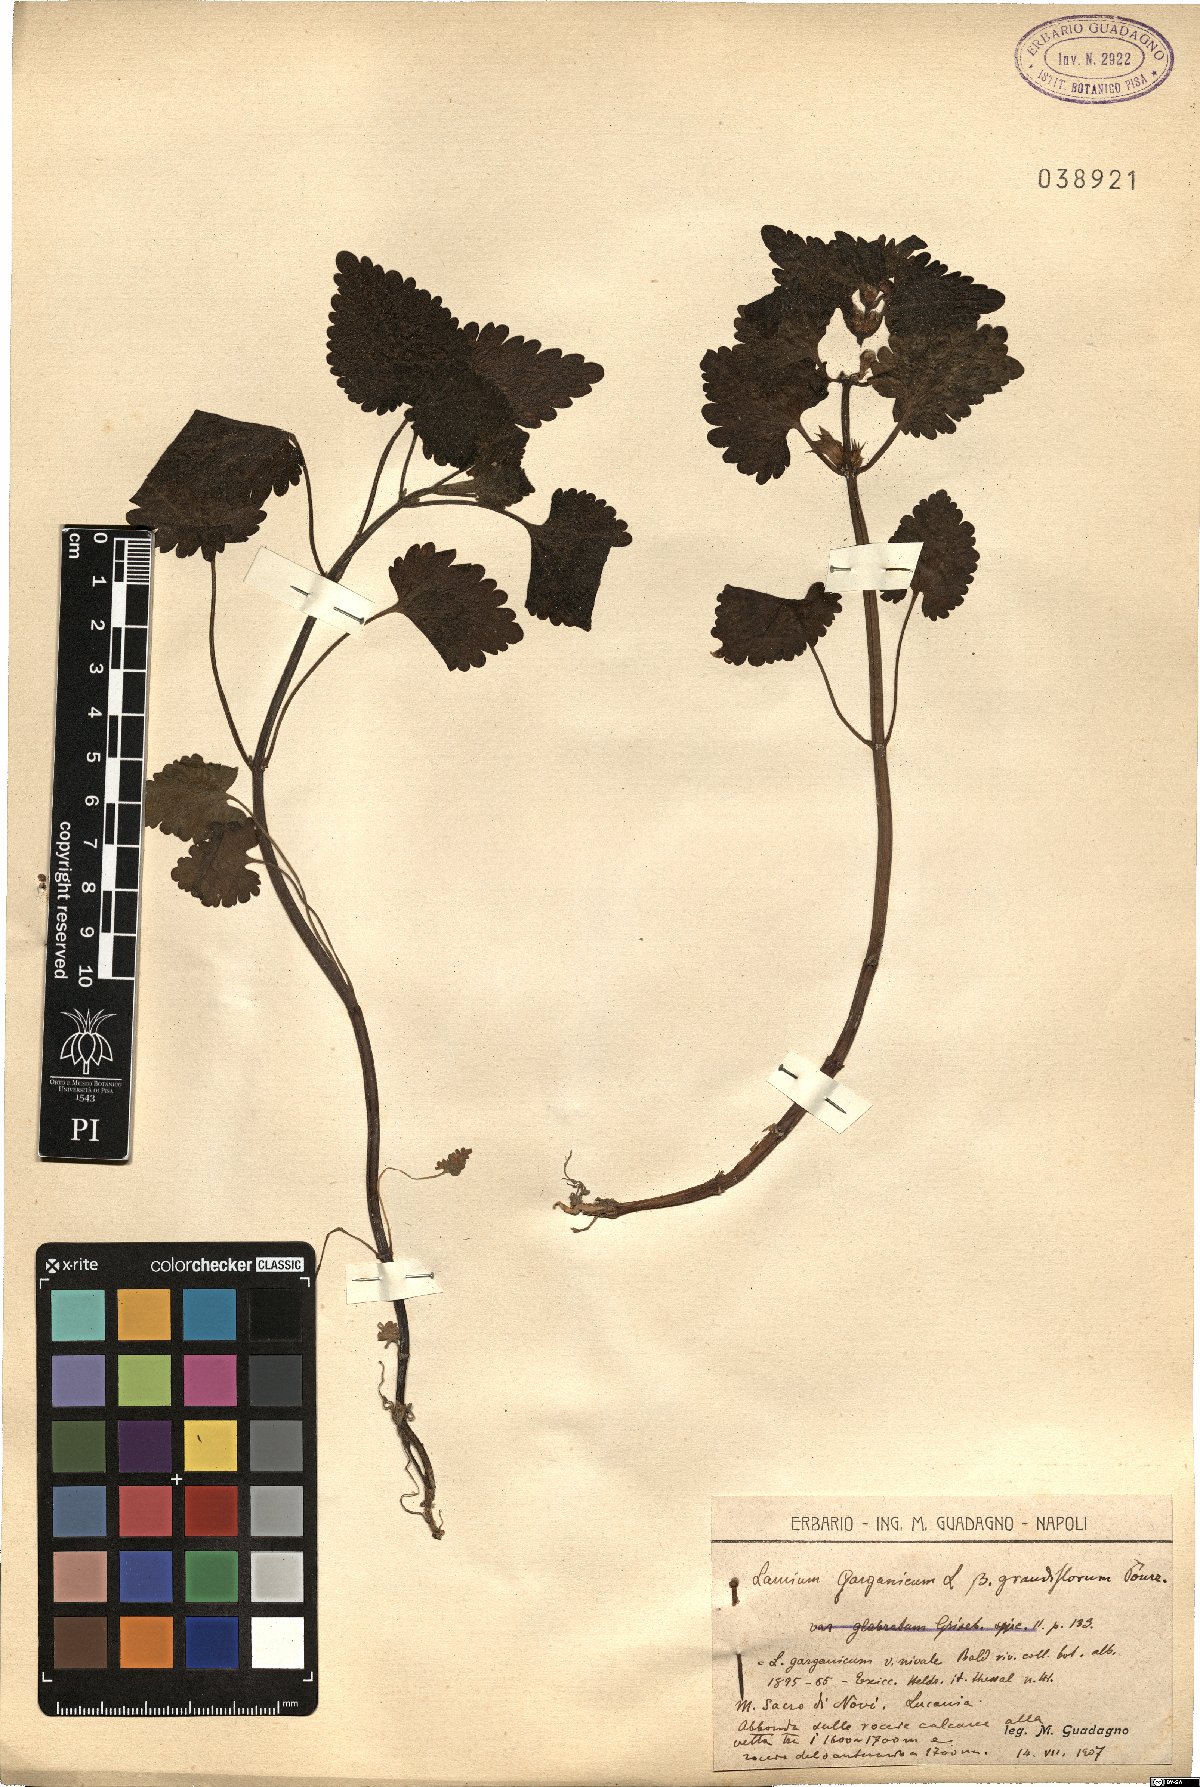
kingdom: Plantae
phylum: Tracheophyta
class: Magnoliopsida
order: Lamiales
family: Lamiaceae
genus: Lamium
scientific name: Lamium garganicum
